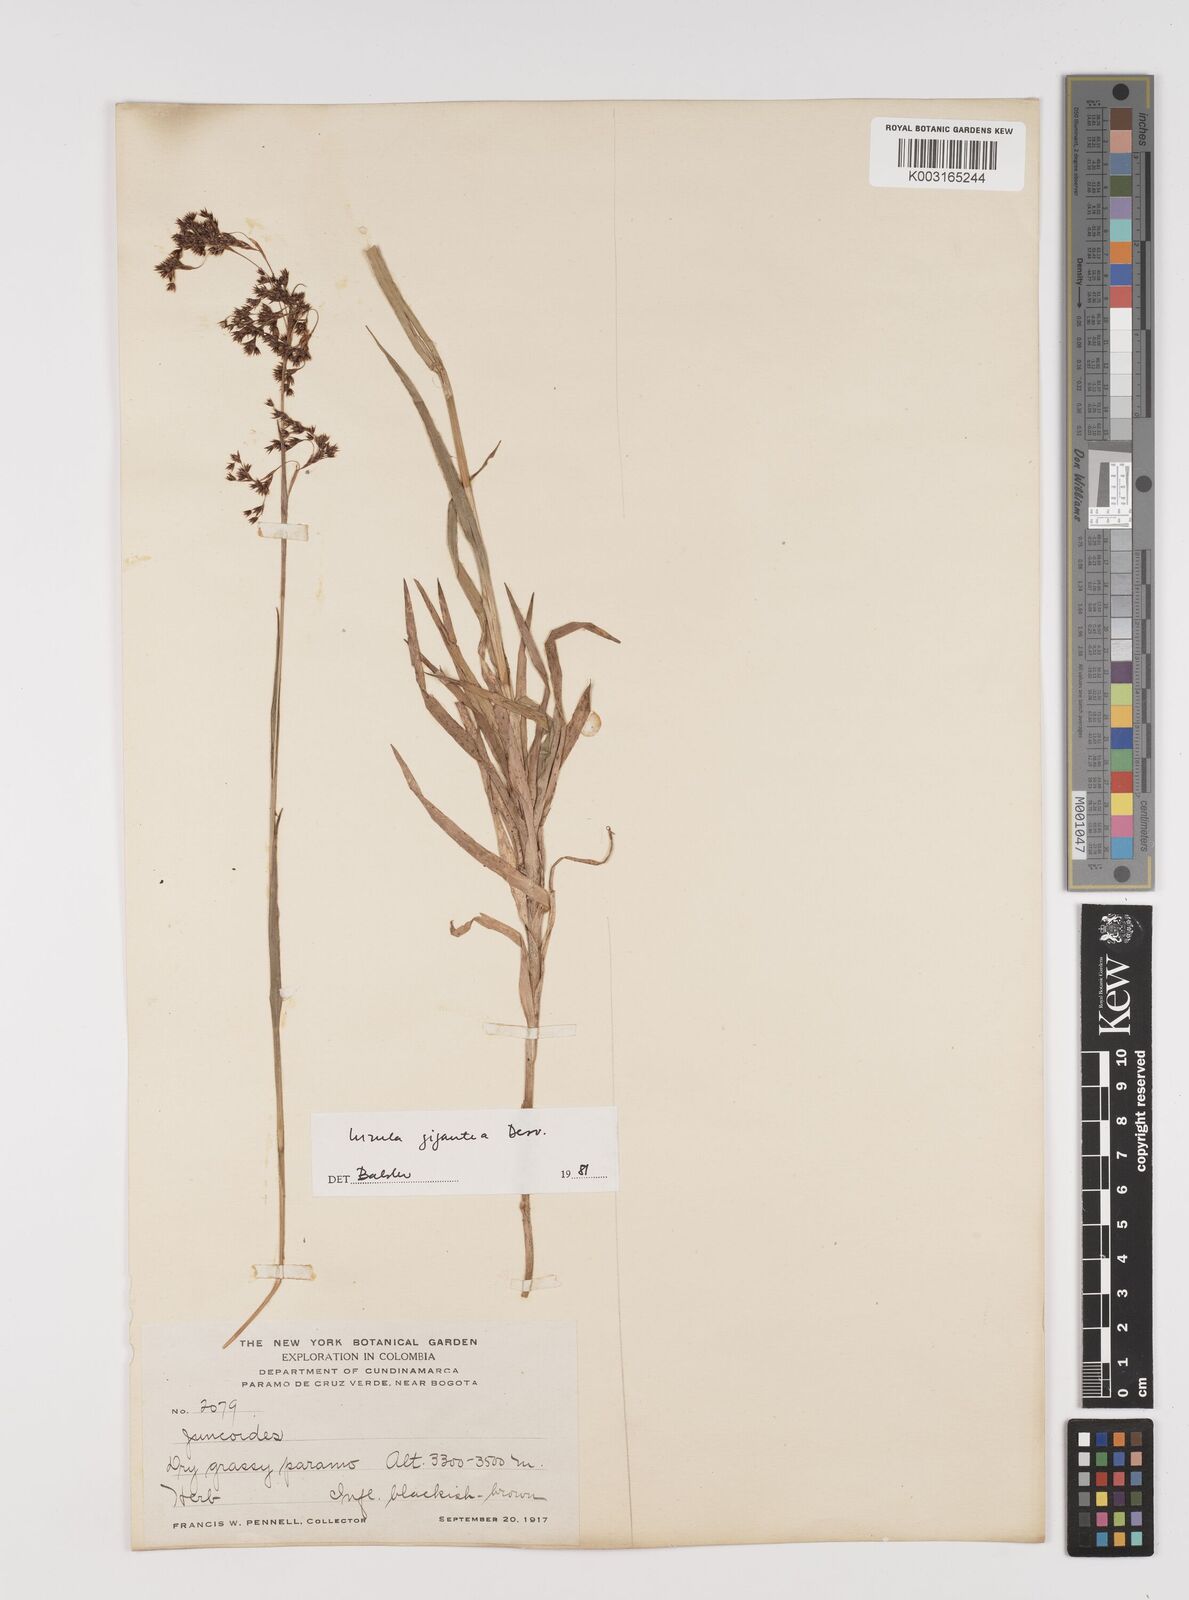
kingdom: Plantae
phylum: Tracheophyta
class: Liliopsida
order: Poales
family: Juncaceae
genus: Luzula
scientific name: Luzula gigantea
